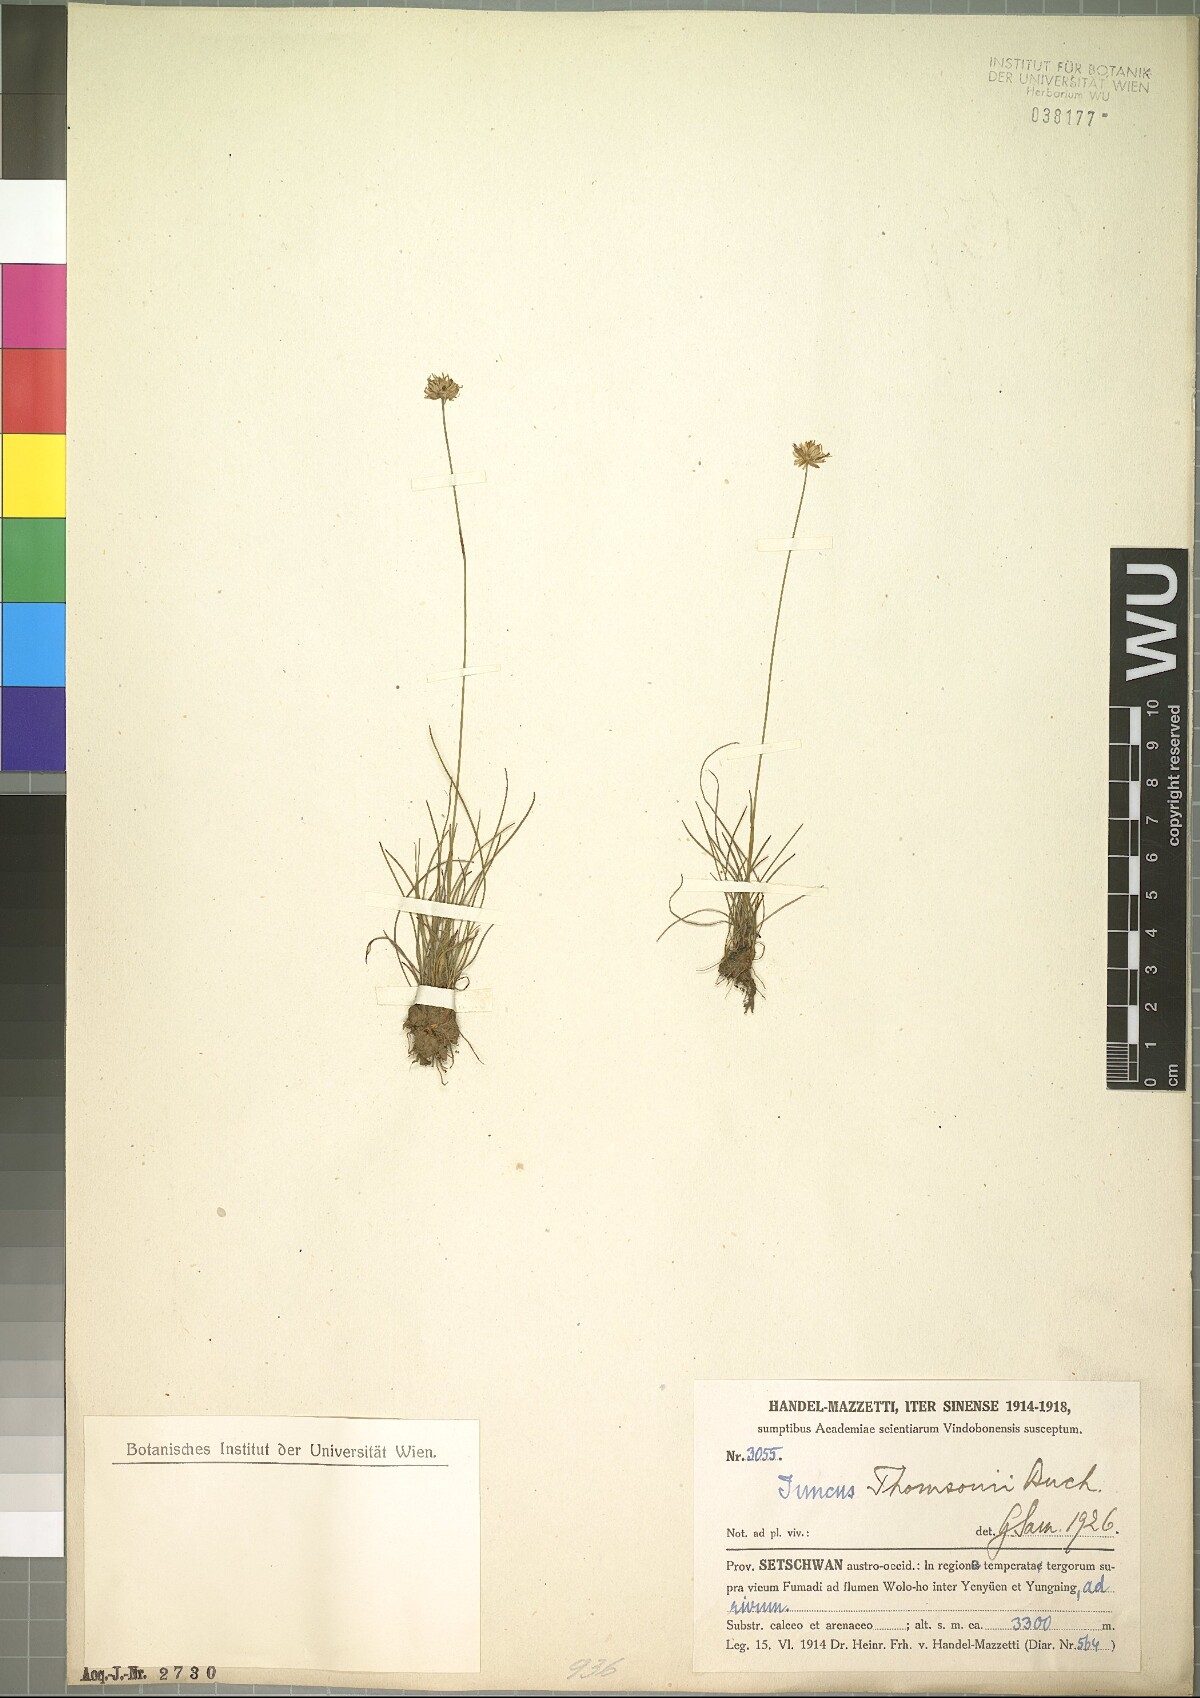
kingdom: Plantae
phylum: Tracheophyta
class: Liliopsida
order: Poales
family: Juncaceae
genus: Juncus
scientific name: Juncus thomsonii
